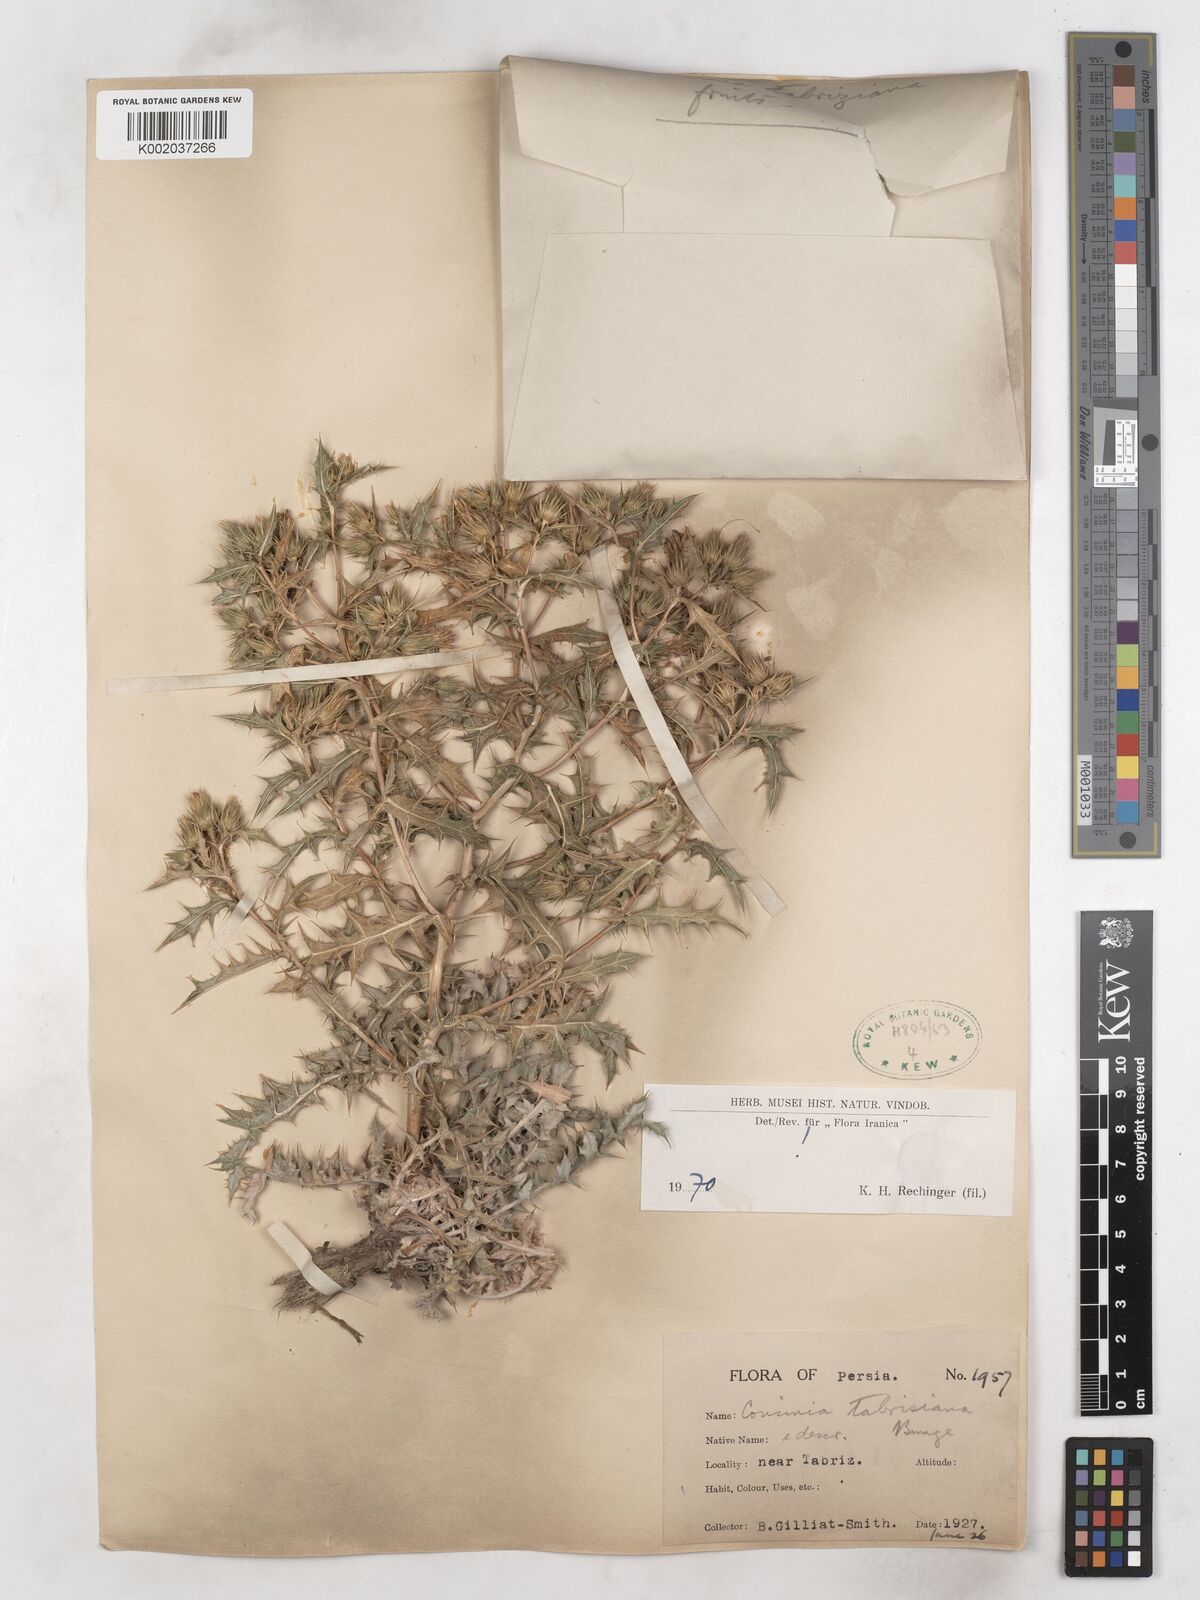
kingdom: Plantae
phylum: Tracheophyta
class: Magnoliopsida
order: Asterales
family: Asteraceae
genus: Cousinia
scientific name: Cousinia tabrisiana
